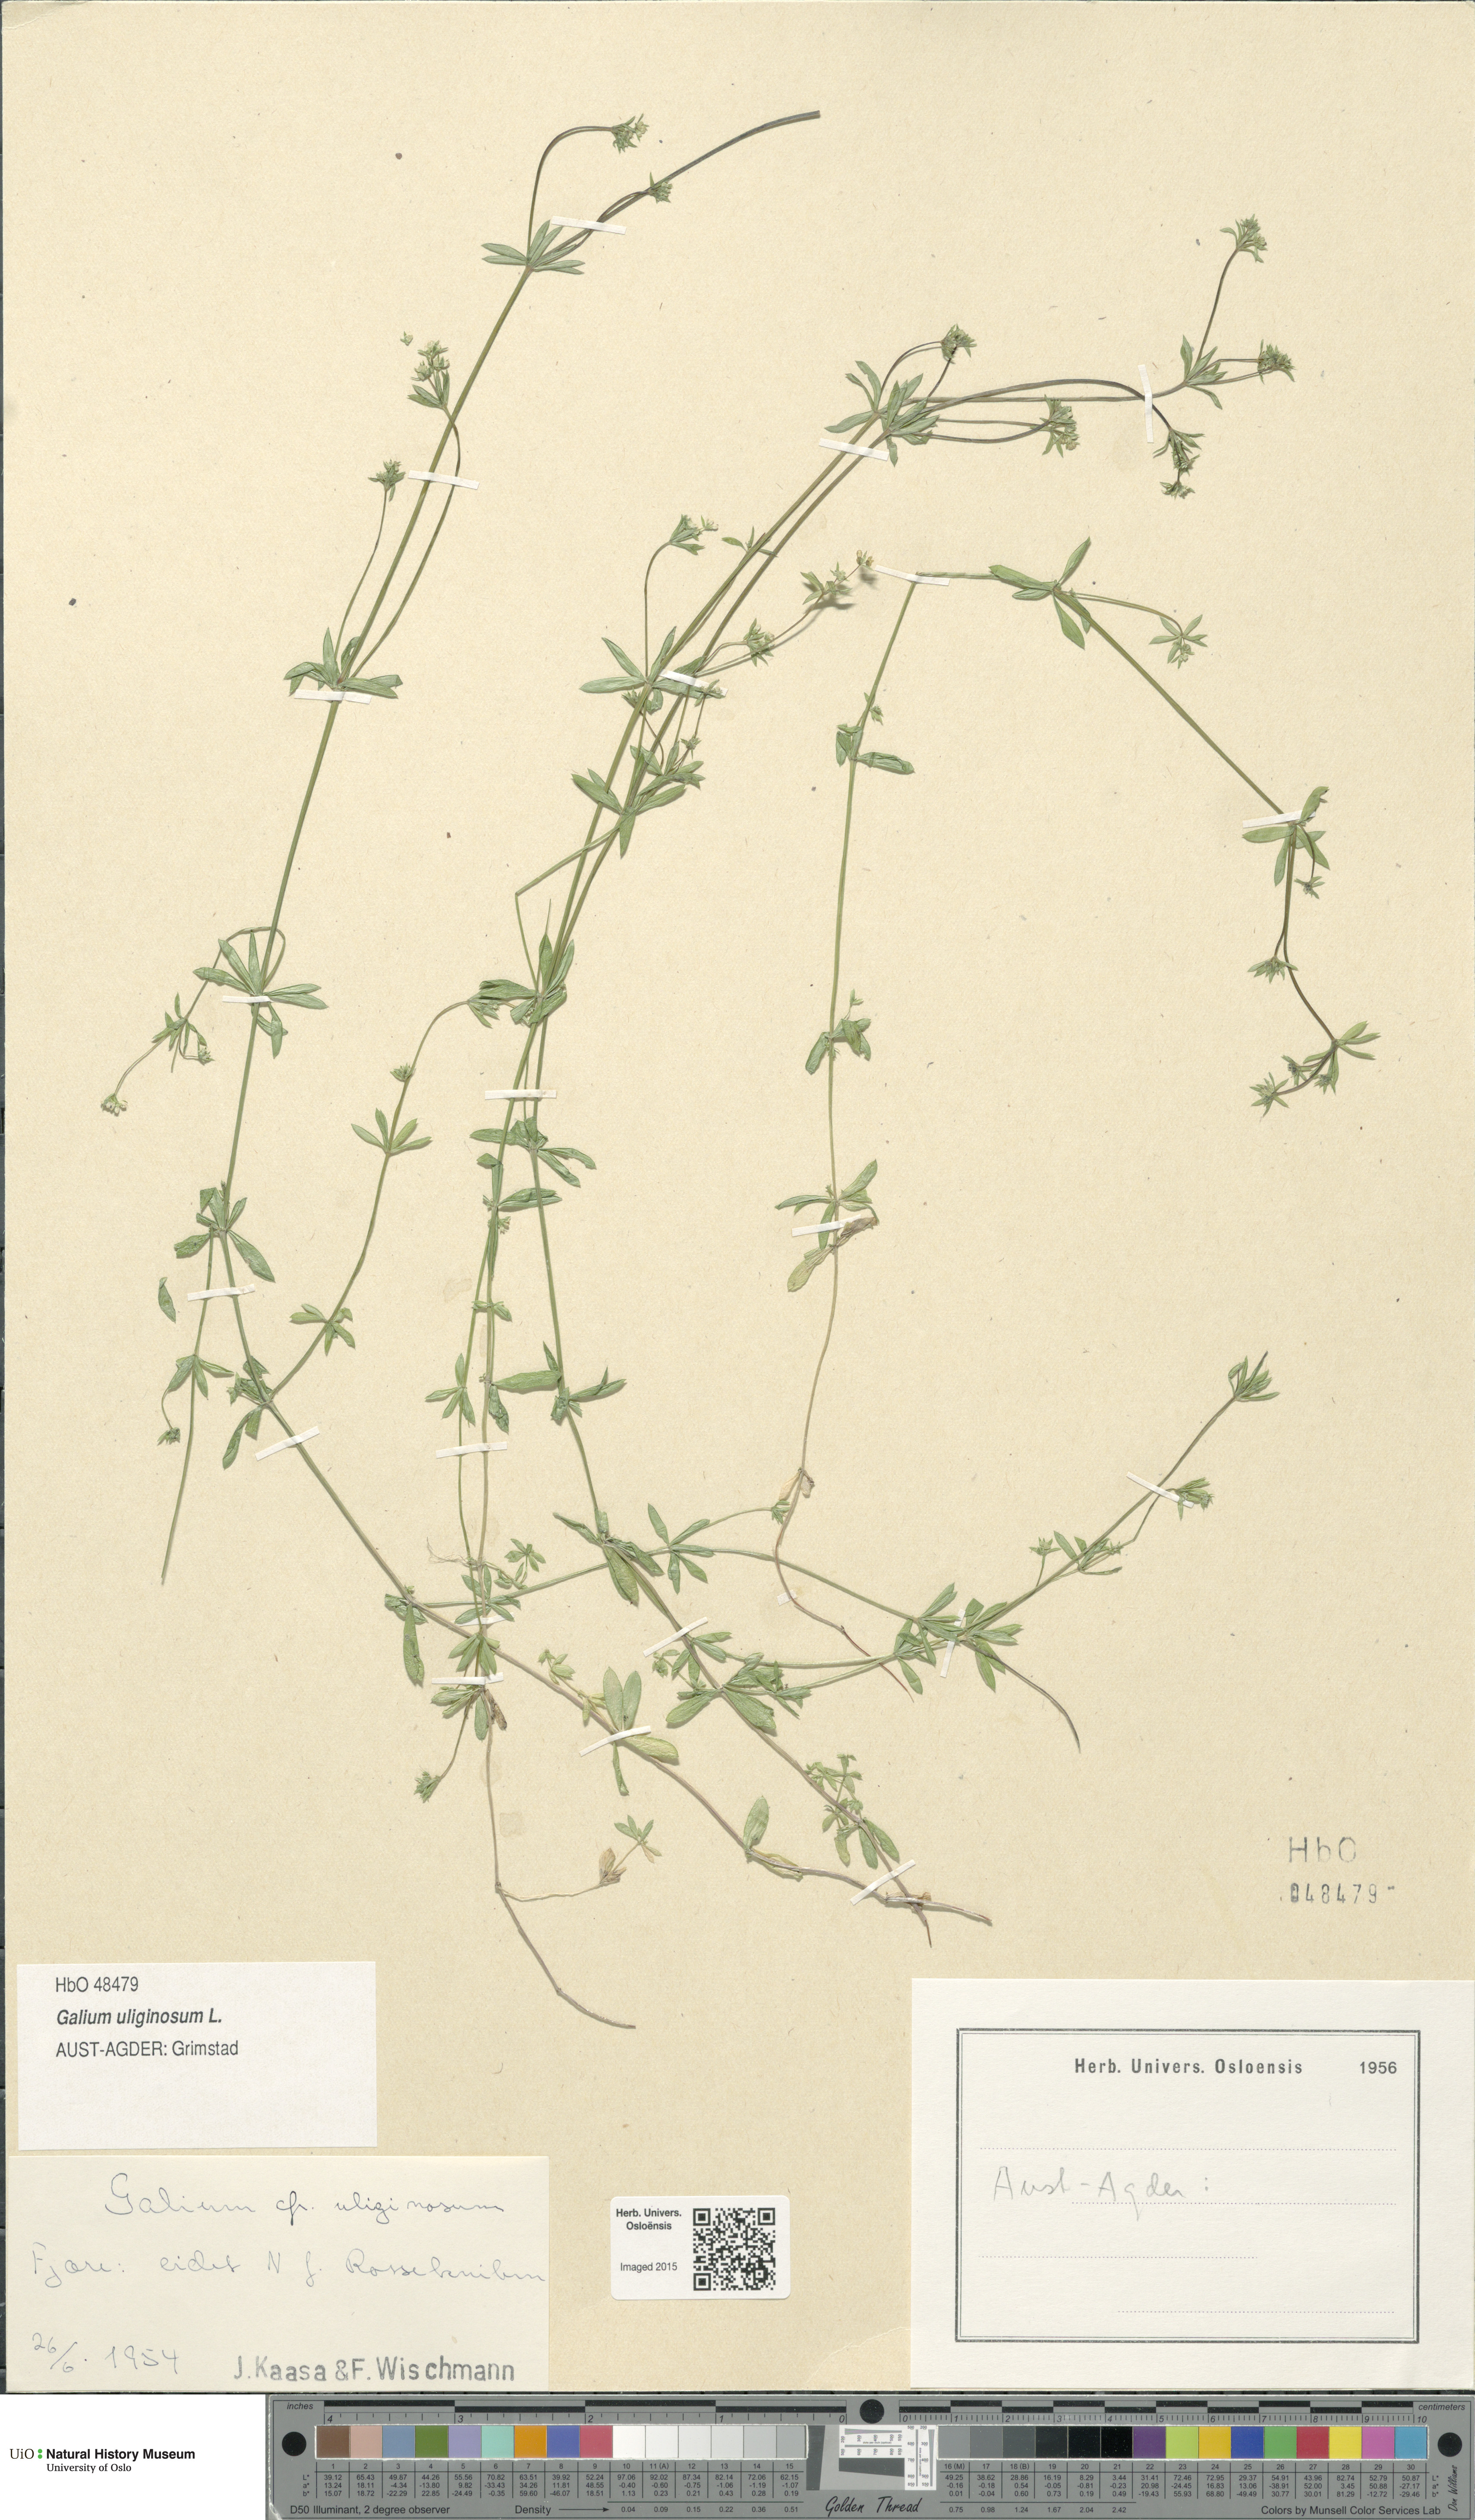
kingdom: Plantae
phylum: Tracheophyta
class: Magnoliopsida
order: Gentianales
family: Rubiaceae
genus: Galium
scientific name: Galium uliginosum
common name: Fen bedstraw
